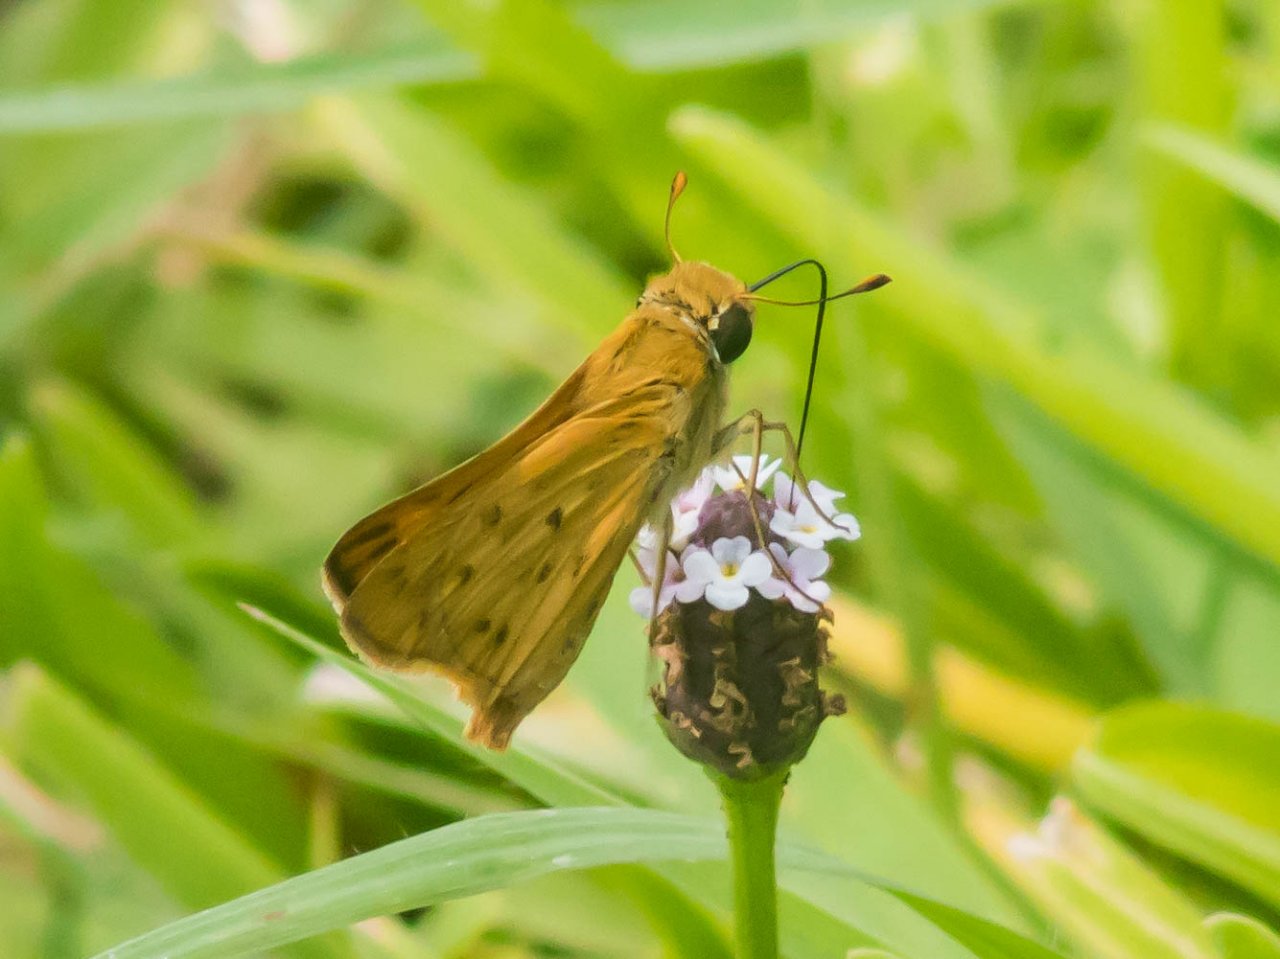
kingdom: Animalia
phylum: Arthropoda
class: Insecta
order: Lepidoptera
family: Hesperiidae
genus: Hylephila
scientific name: Hylephila phyleus
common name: Fiery Skipper
